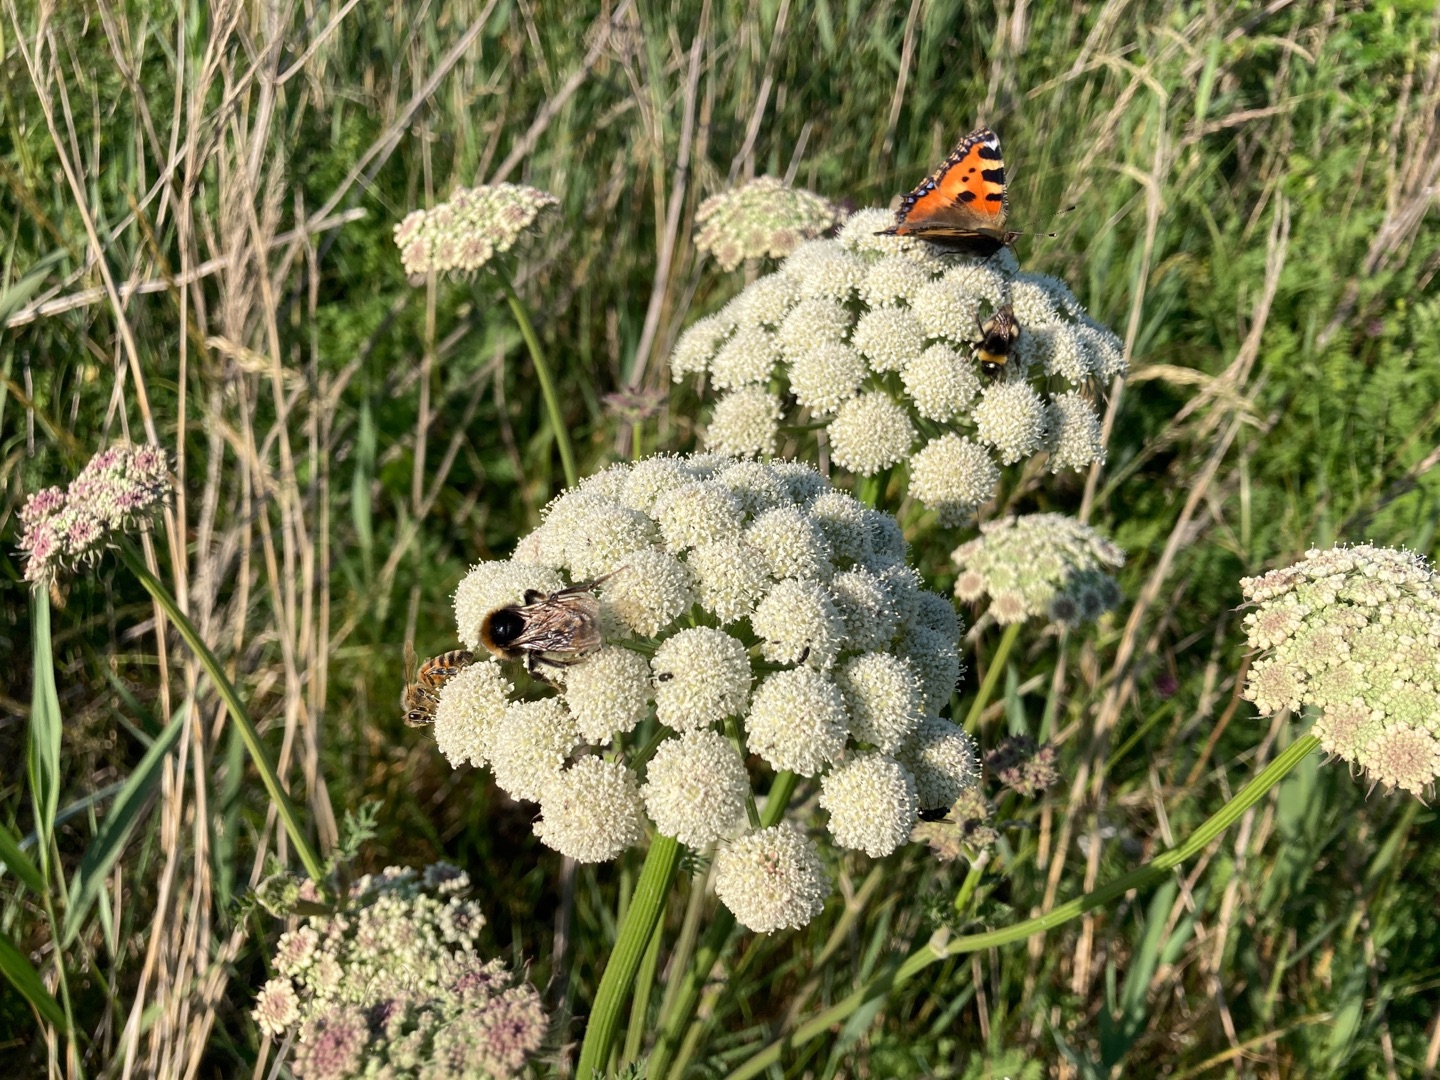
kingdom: Plantae
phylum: Tracheophyta
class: Magnoliopsida
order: Apiales
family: Apiaceae
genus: Seseli
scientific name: Seseli libanotis
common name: Hjorterod
